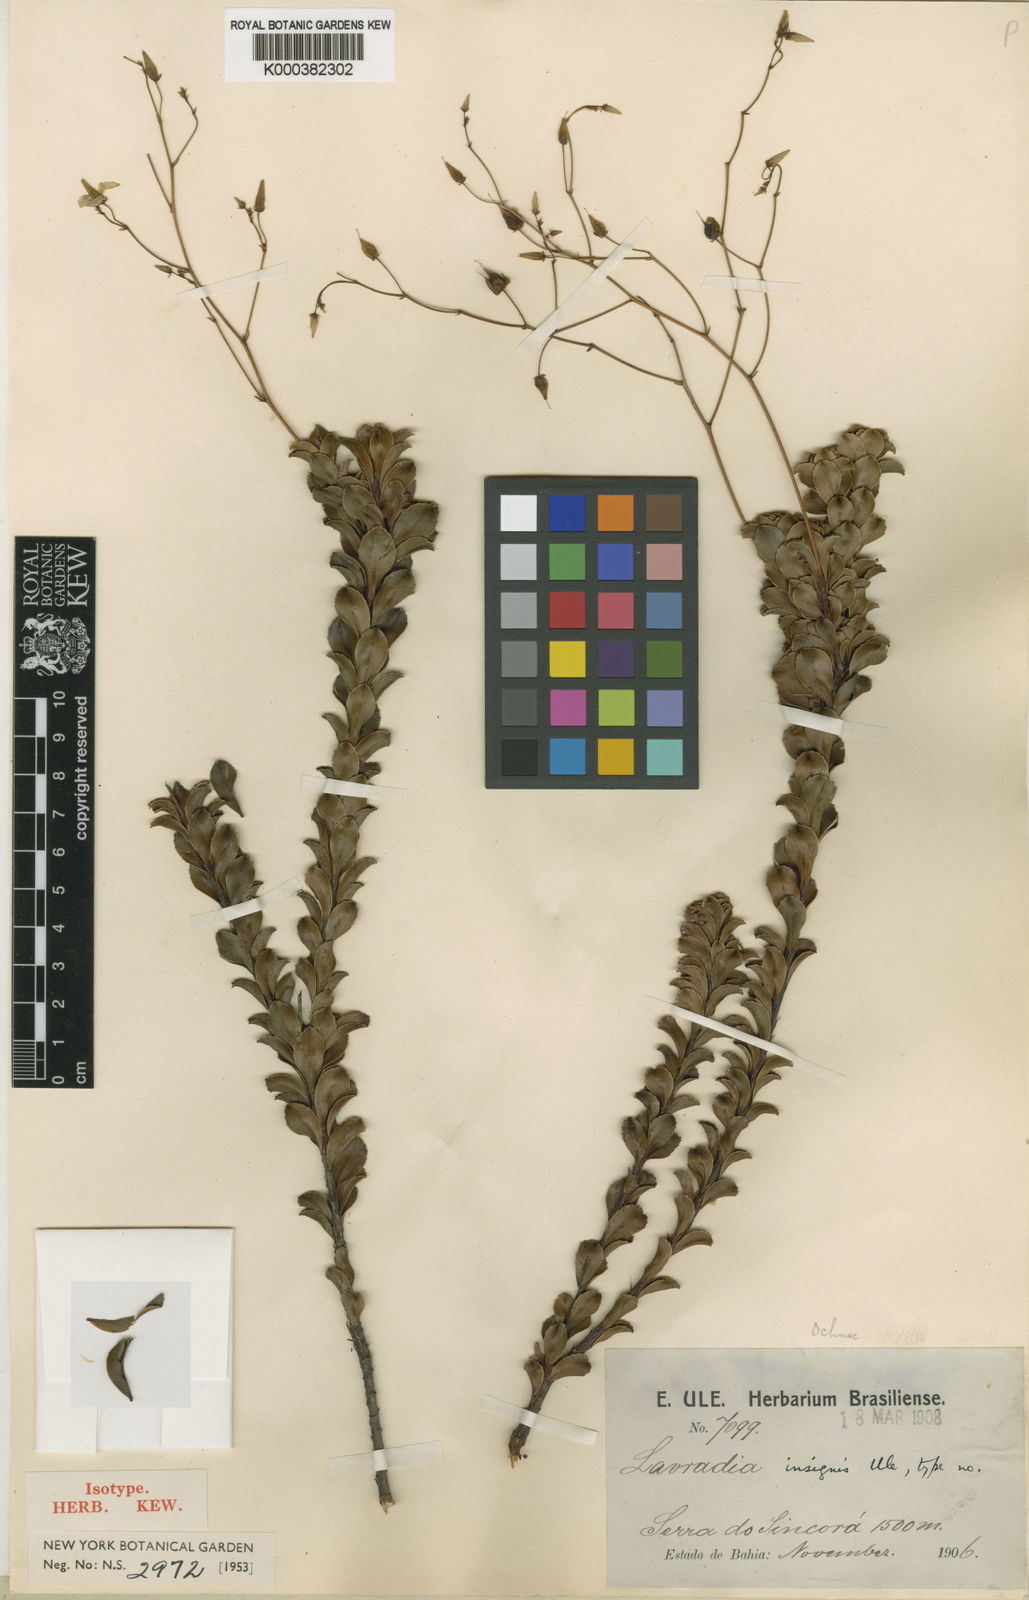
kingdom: Plantae
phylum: Tracheophyta
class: Magnoliopsida
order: Malpighiales
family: Ochnaceae
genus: Sauvagesia
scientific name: Sauvagesia insignis
